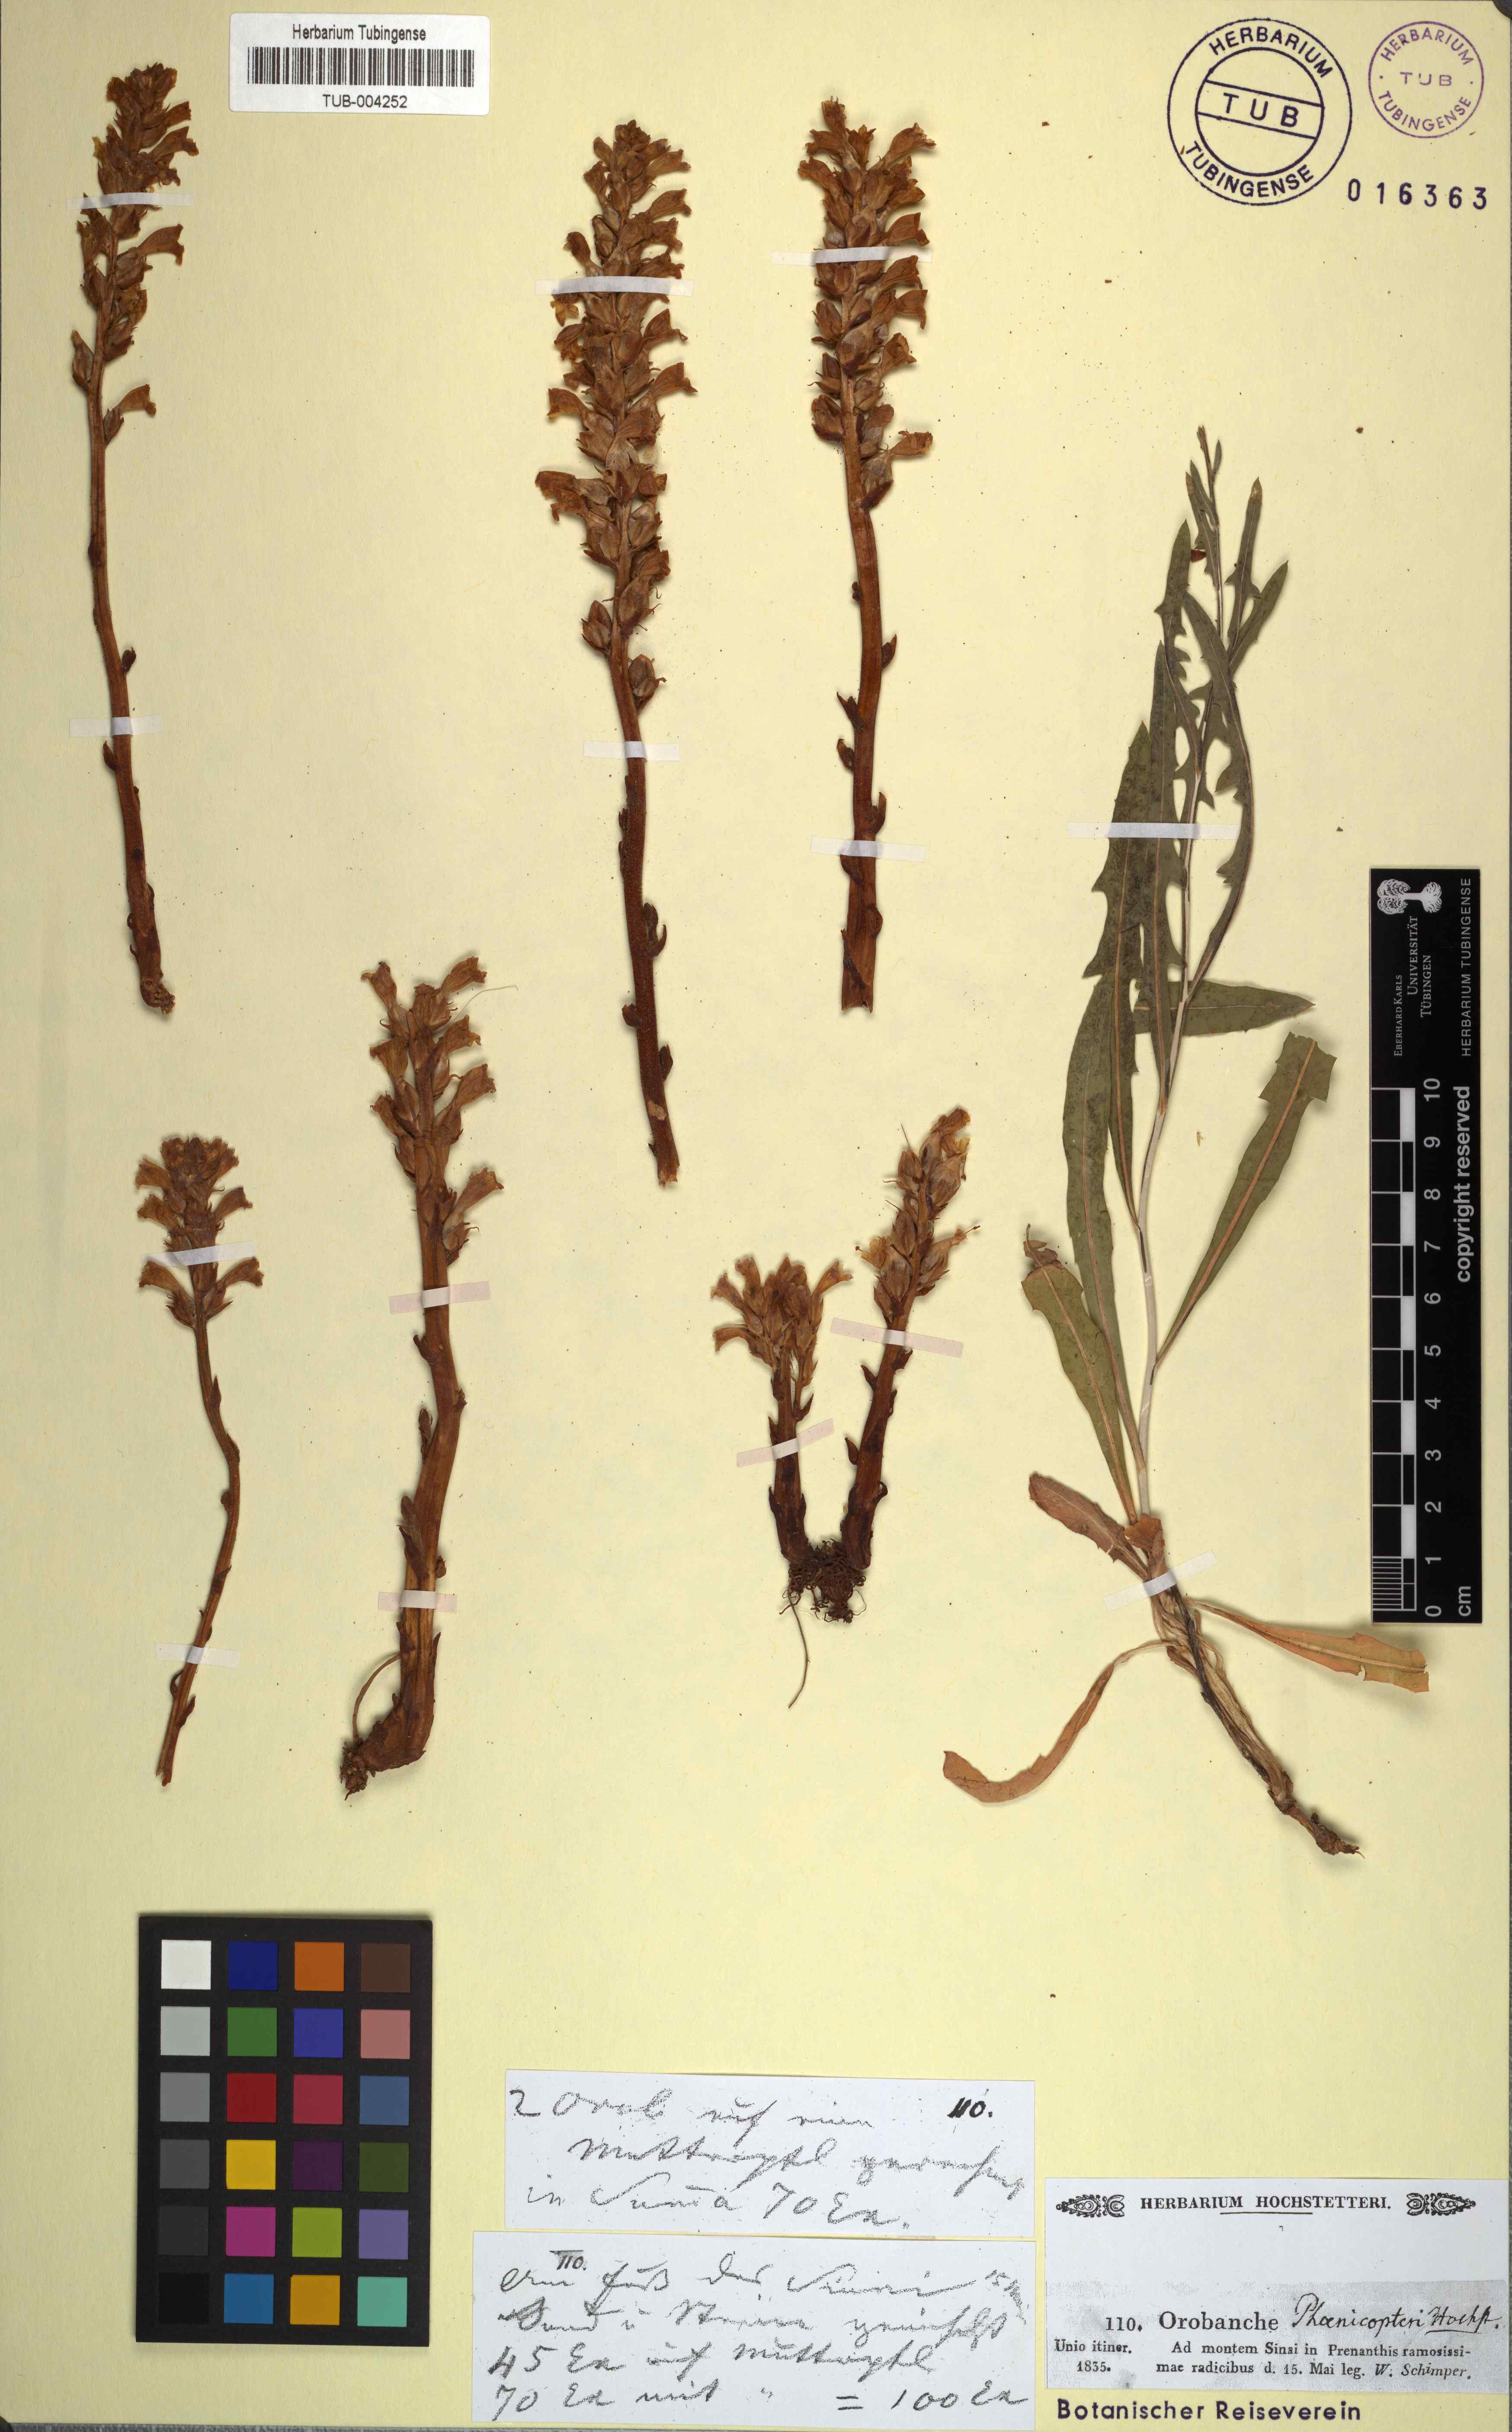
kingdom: Plantae
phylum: Tracheophyta
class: Magnoliopsida
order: Lamiales
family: Orobanchaceae
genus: Orobanche
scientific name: Orobanche
